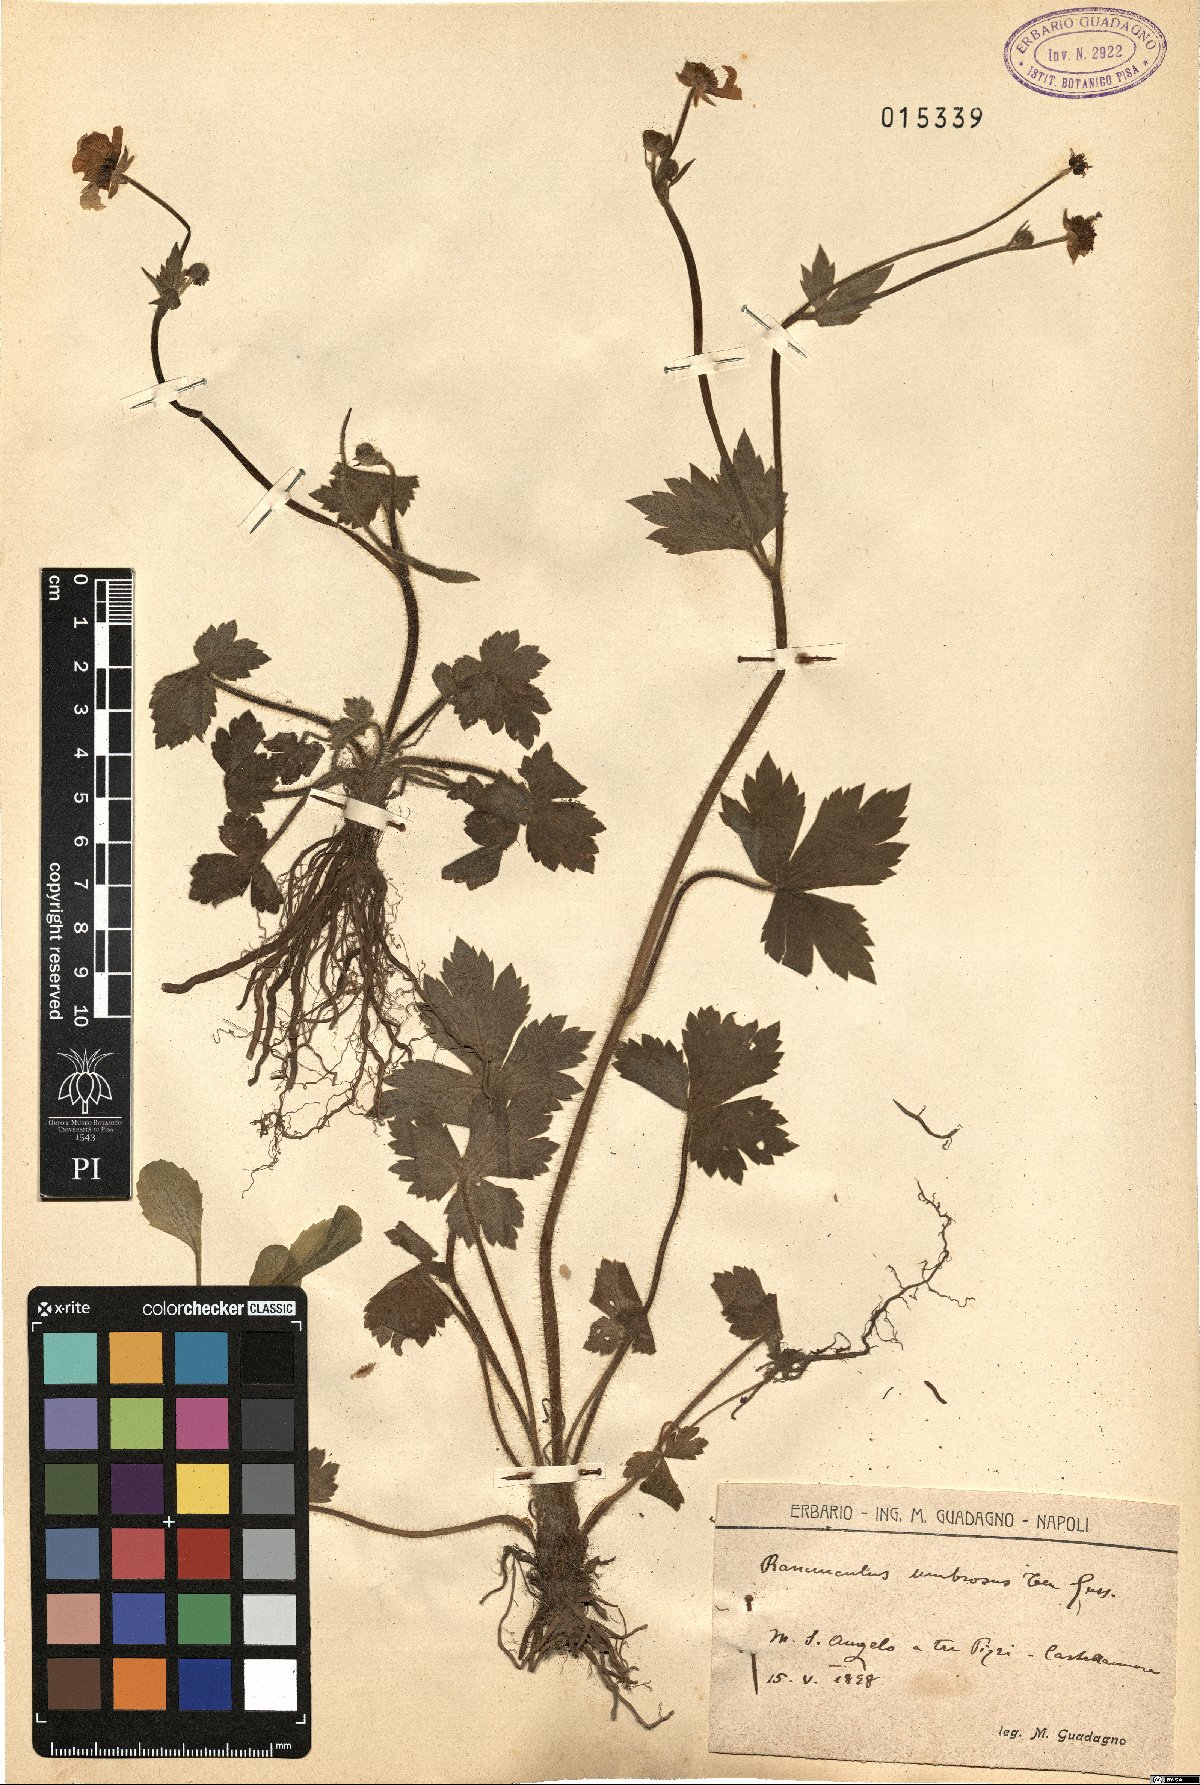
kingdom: Plantae
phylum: Tracheophyta
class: Magnoliopsida
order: Ranunculales
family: Ranunculaceae
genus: Ranunculus
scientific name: Ranunculus lanuginosus
